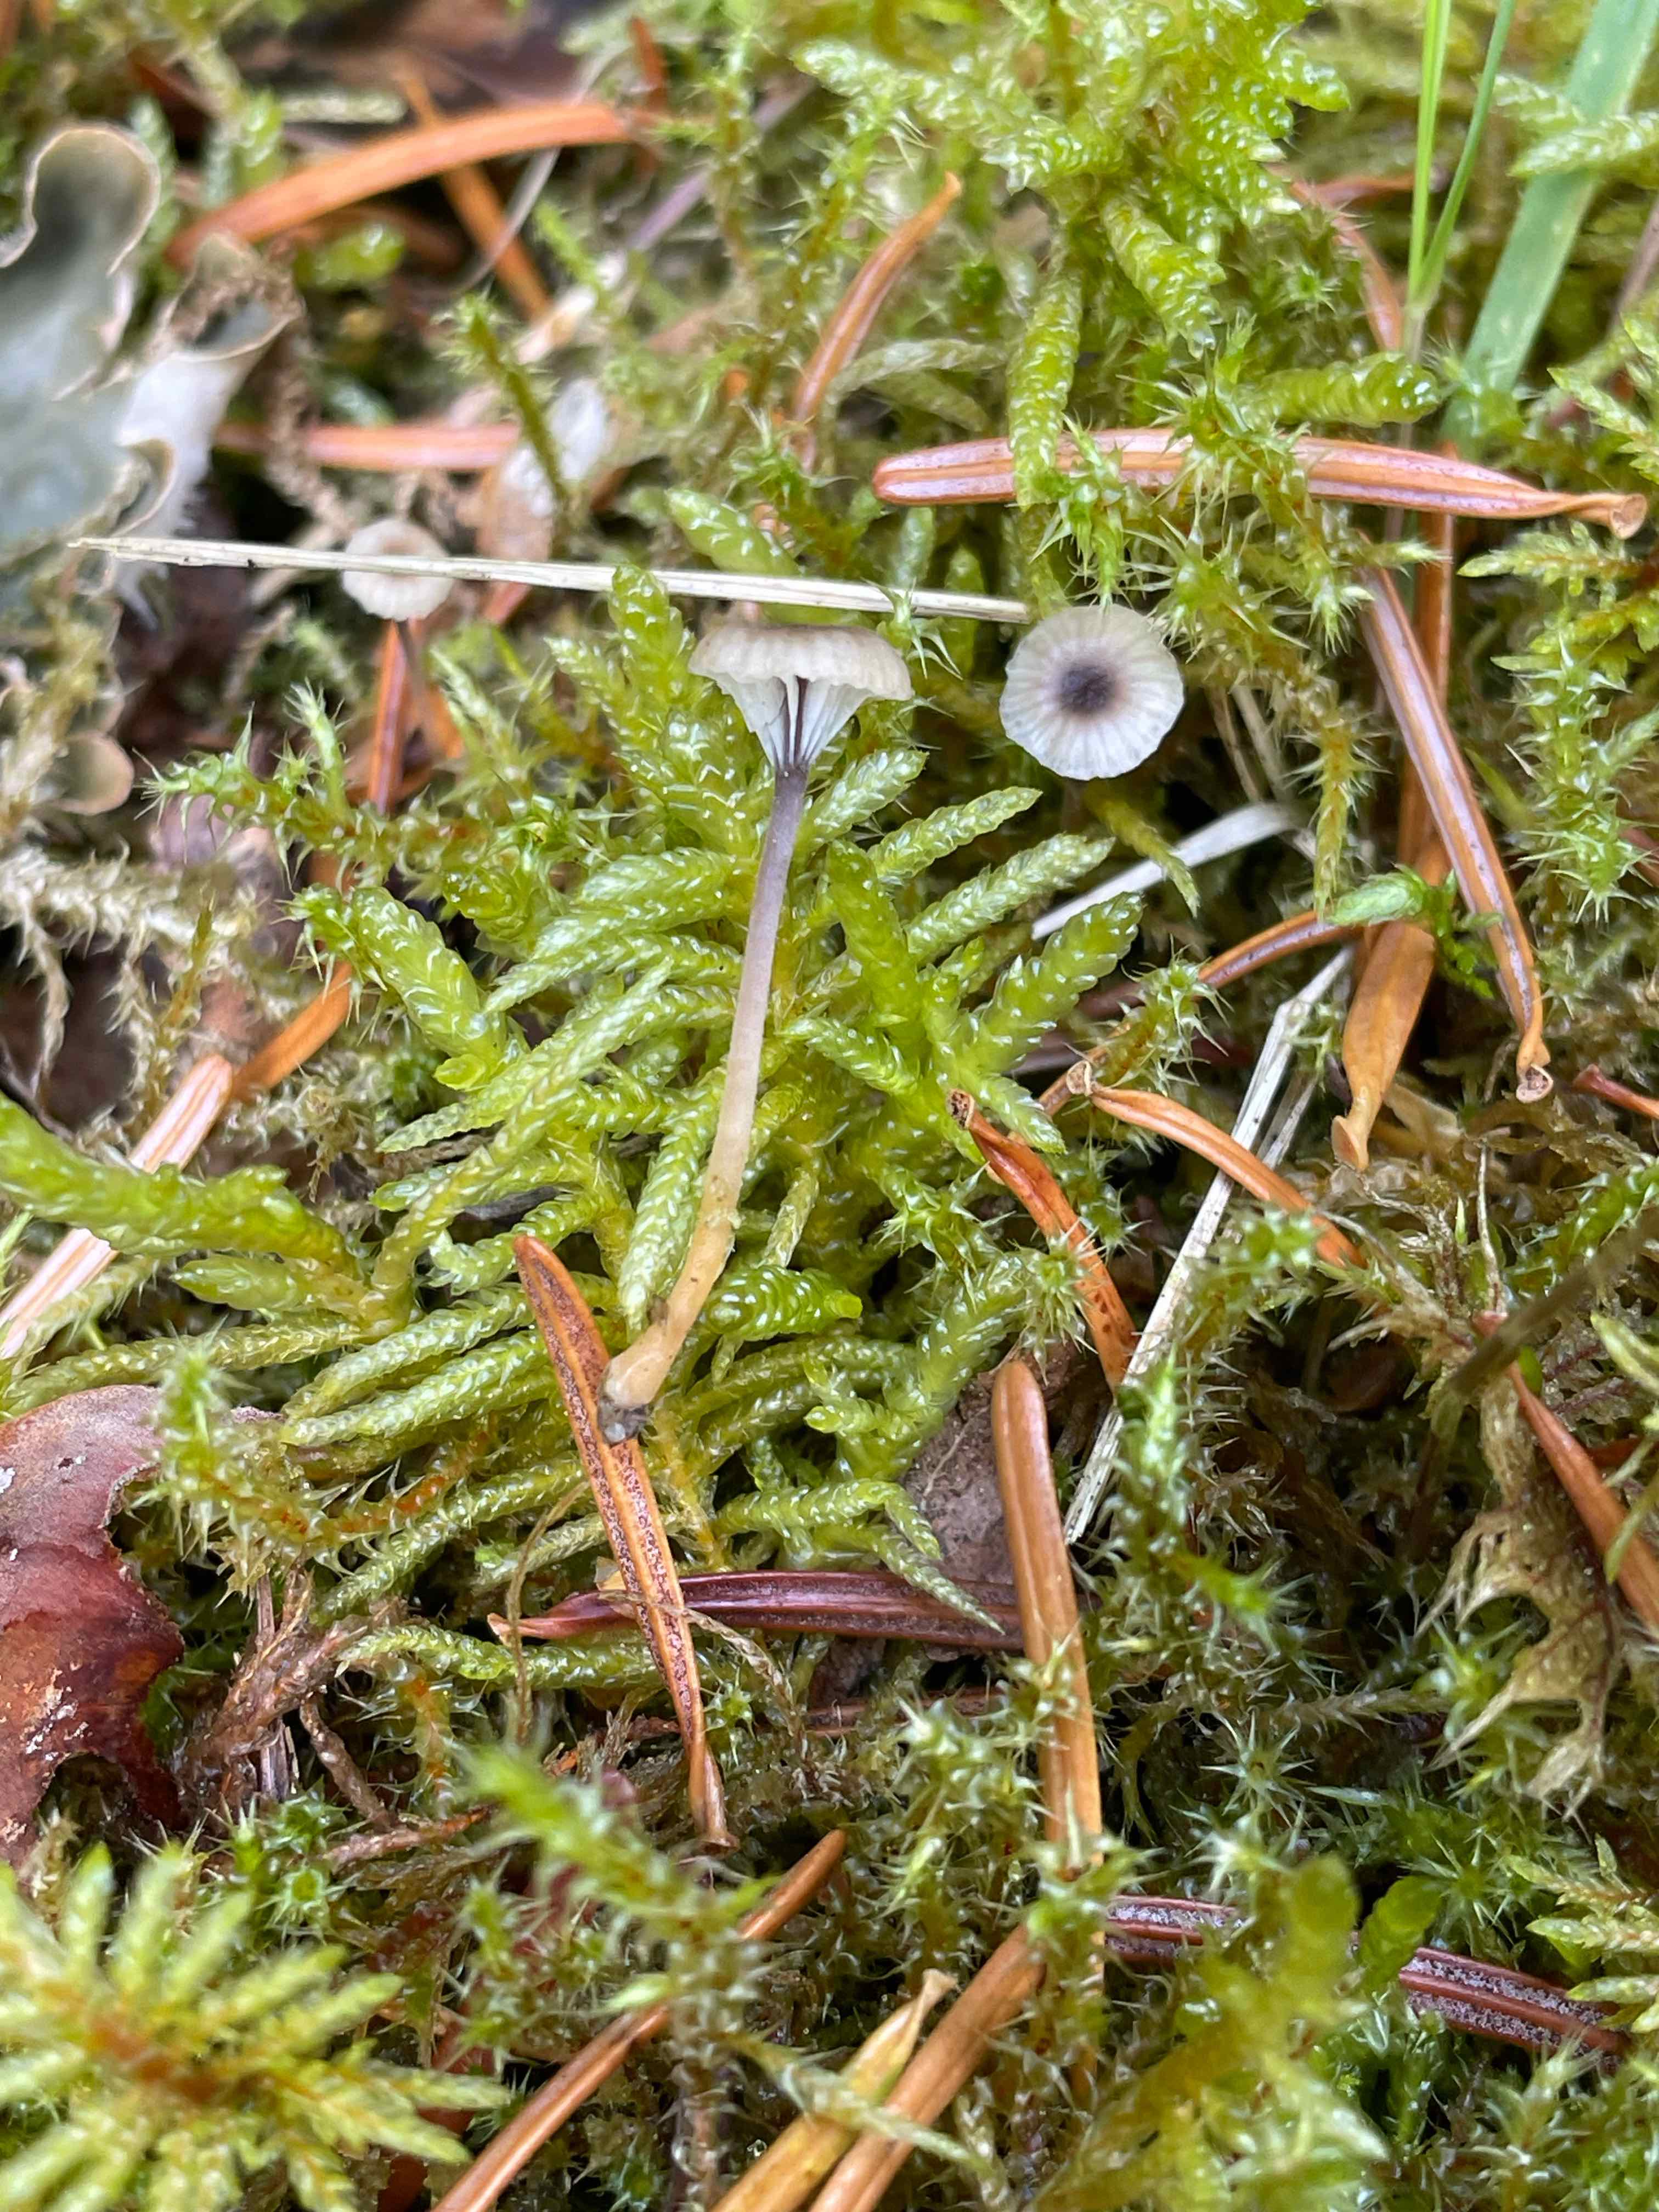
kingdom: Fungi
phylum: Basidiomycota
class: Agaricomycetes
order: Hymenochaetales
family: Rickenellaceae
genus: Rickenella
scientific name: Rickenella swartzii
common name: finstokket mosnavlehat
